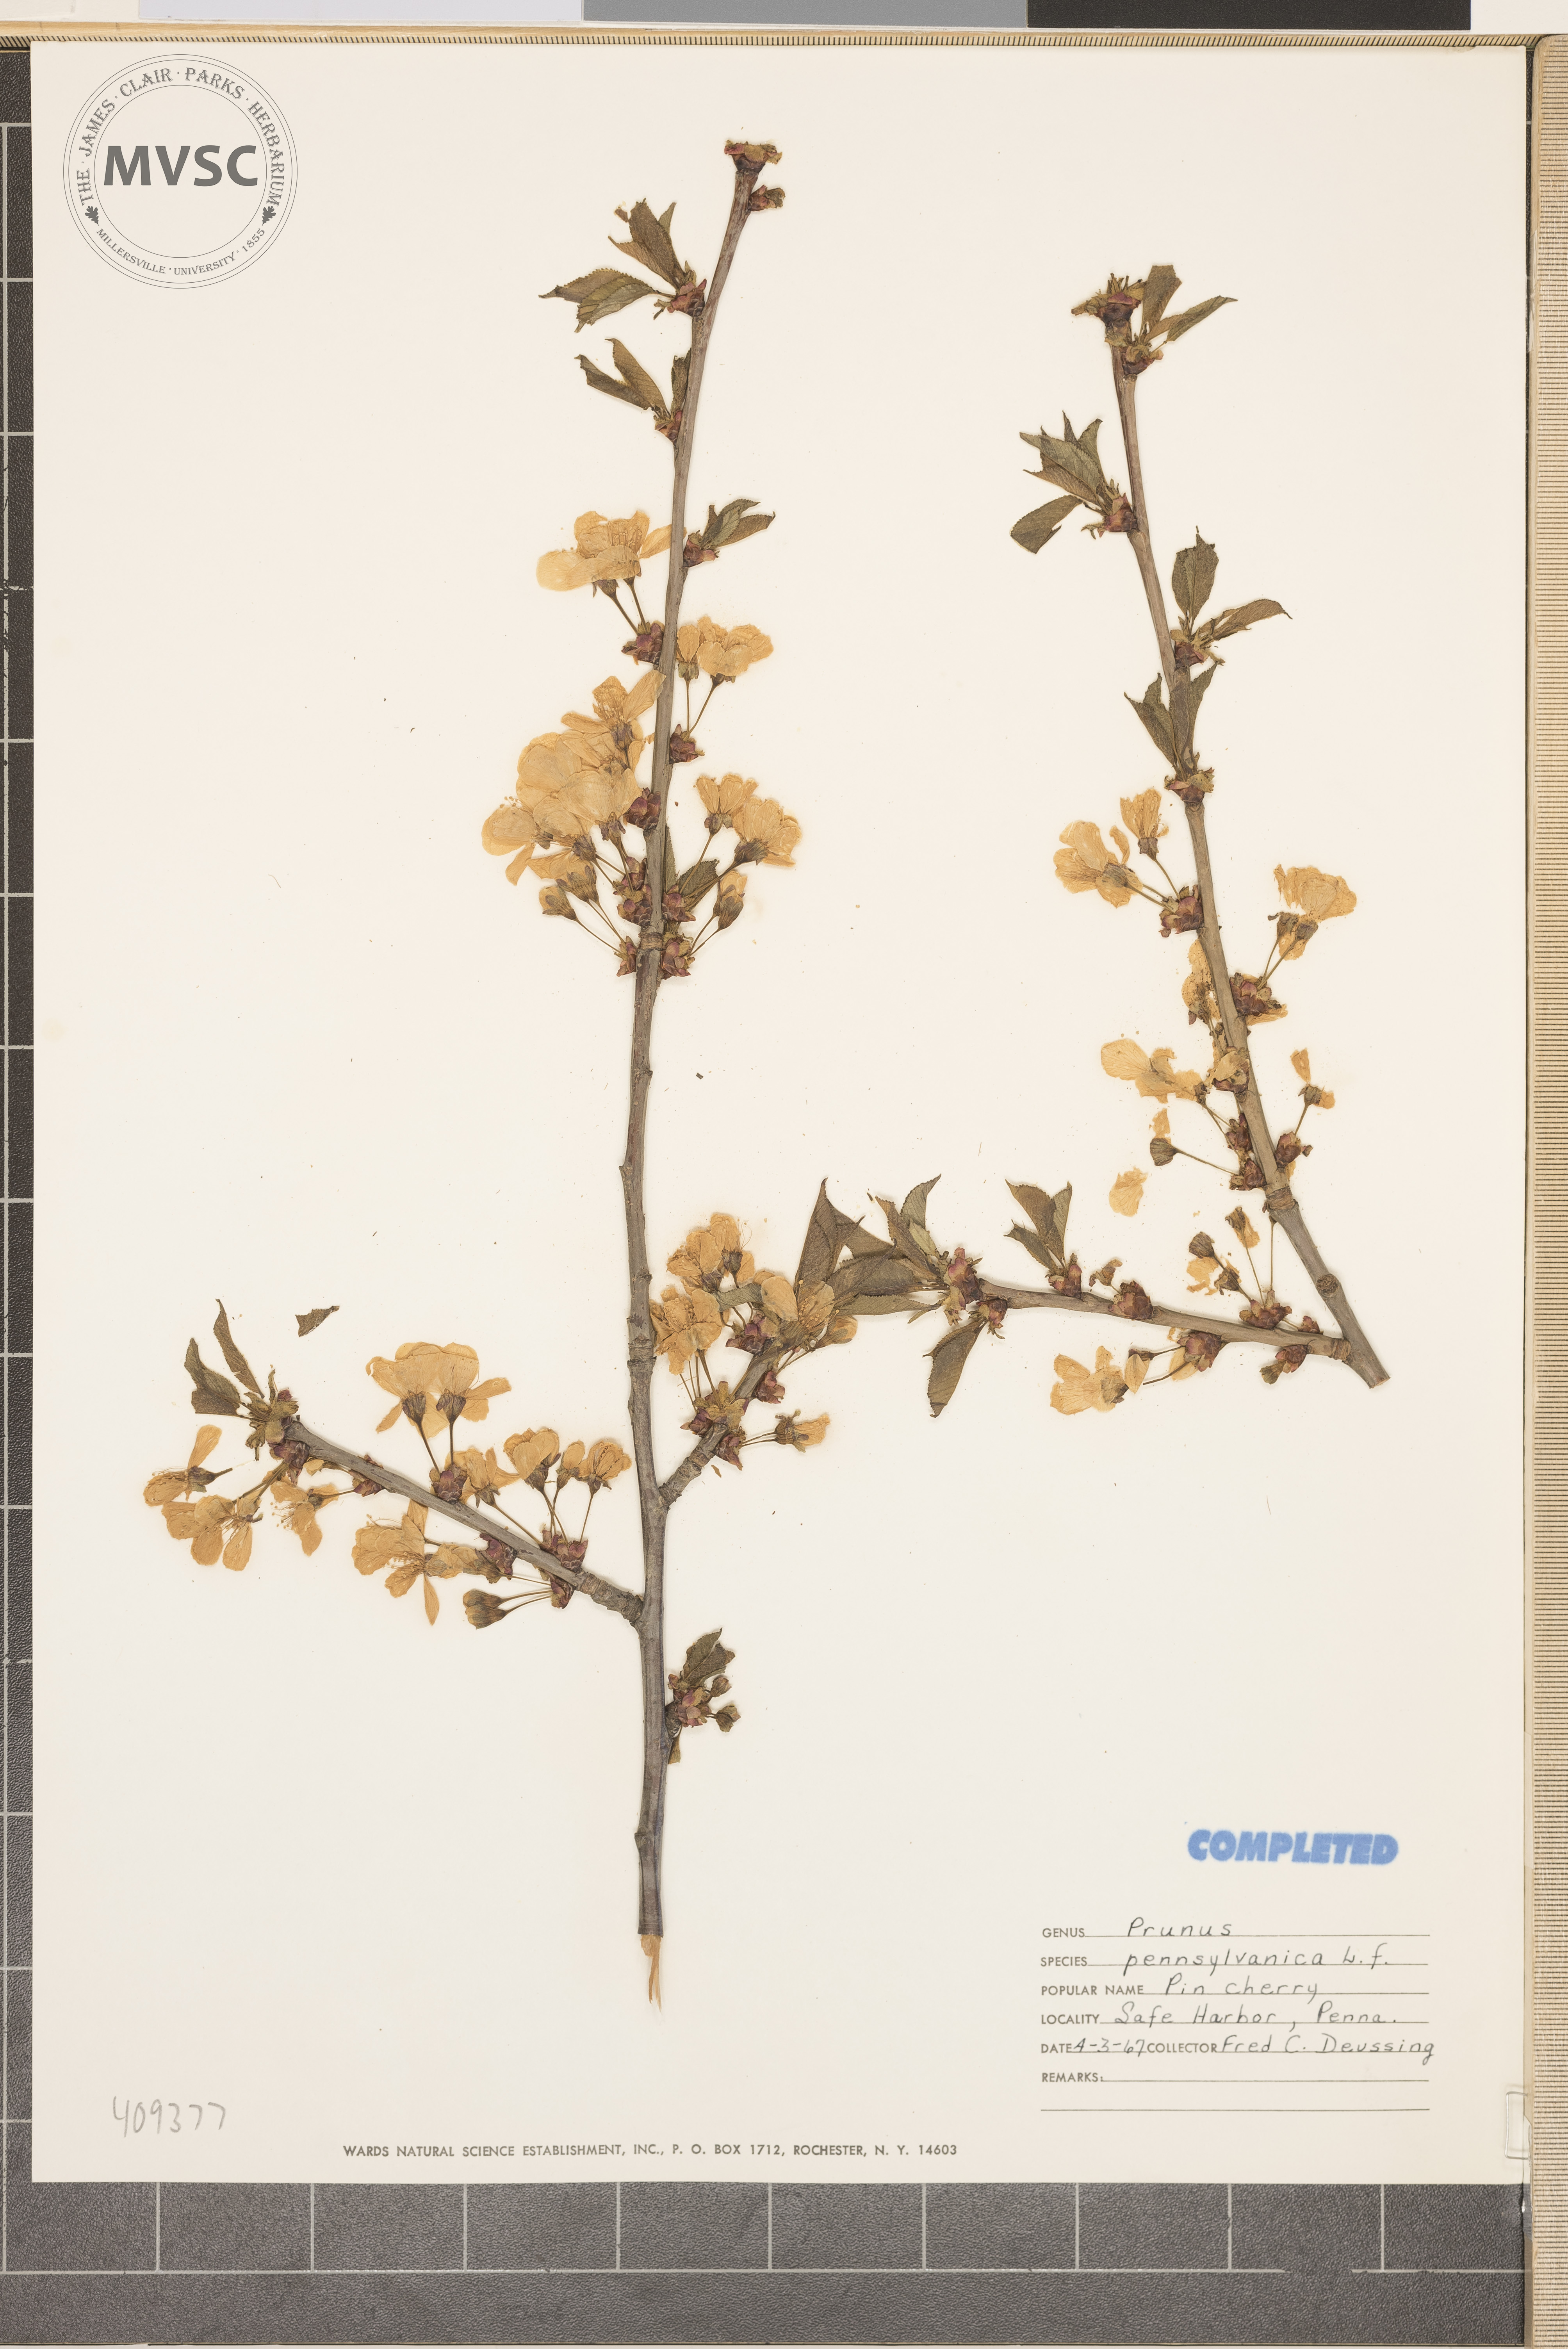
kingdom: Plantae
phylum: Tracheophyta
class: Magnoliopsida
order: Rosales
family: Rosaceae
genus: Prunus
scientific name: Prunus pensylvanica
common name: Pin cherry
